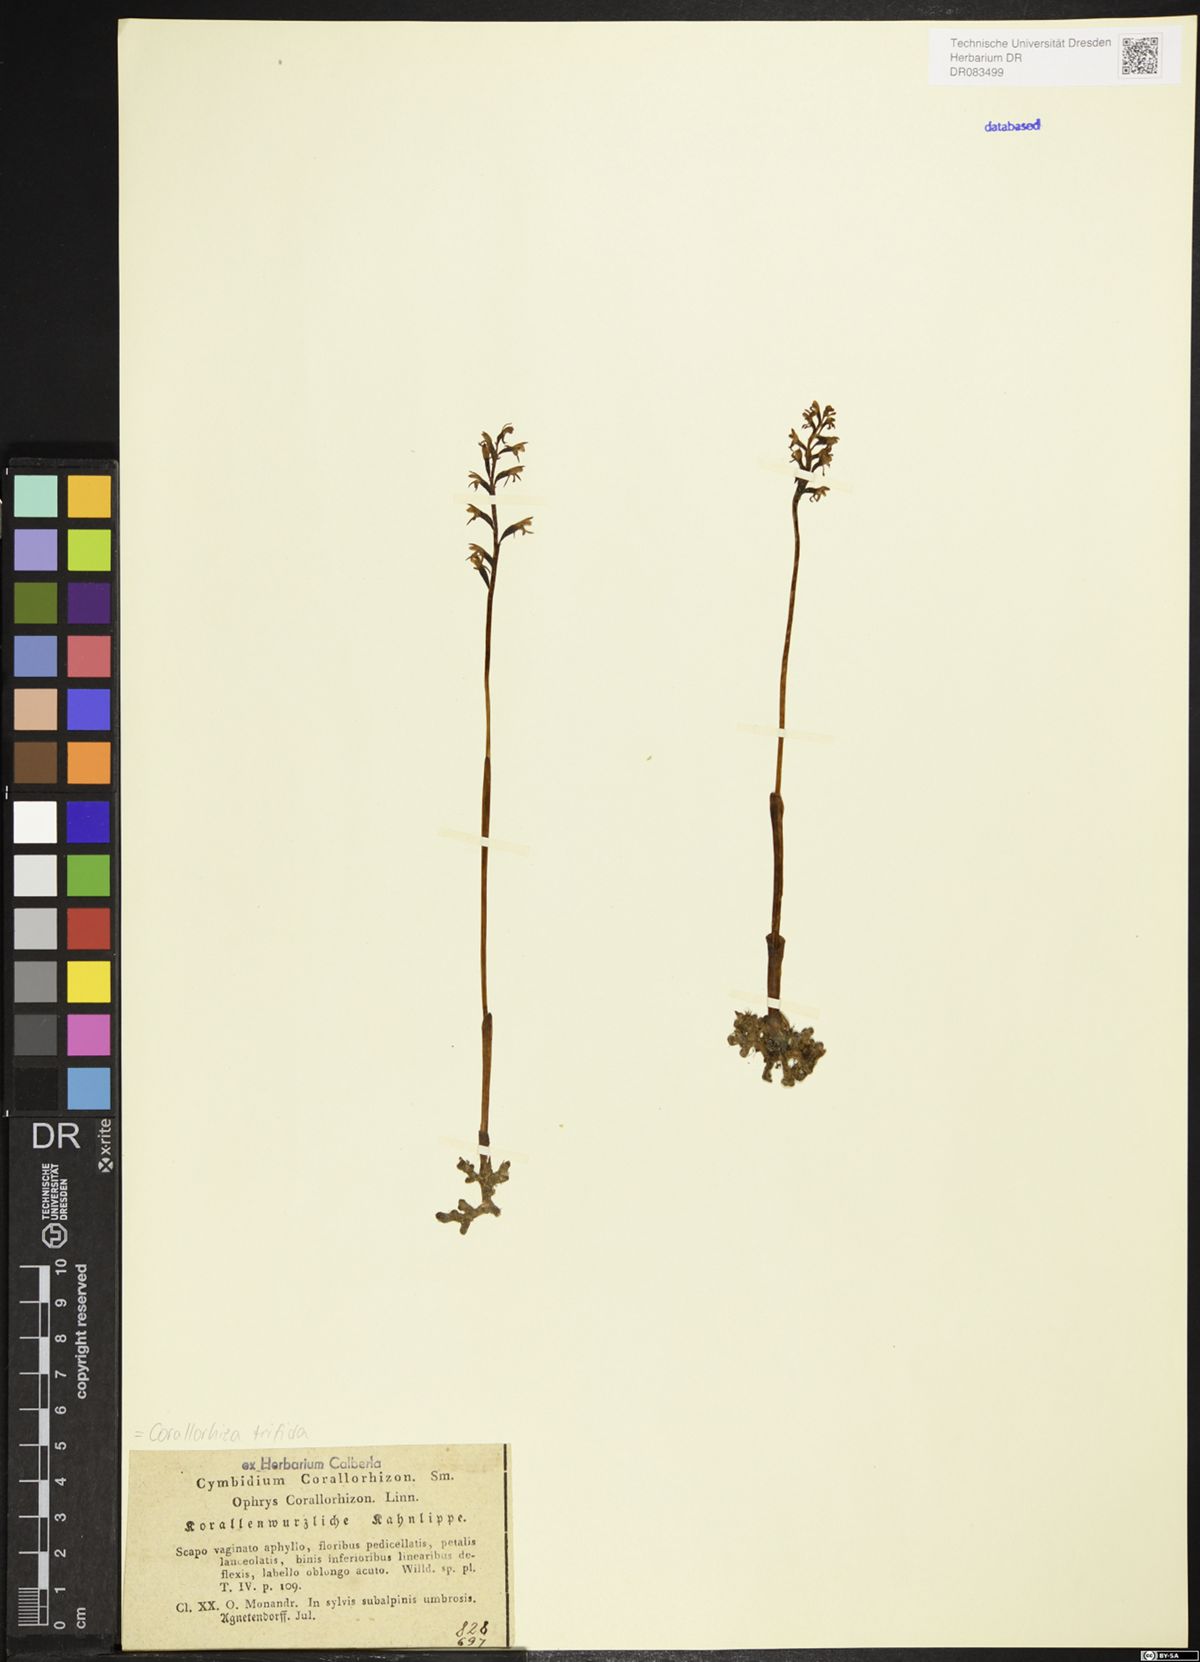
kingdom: Plantae
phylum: Tracheophyta
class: Liliopsida
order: Asparagales
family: Orchidaceae
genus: Corallorhiza
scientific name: Corallorhiza trifida
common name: Yellow coralroot
